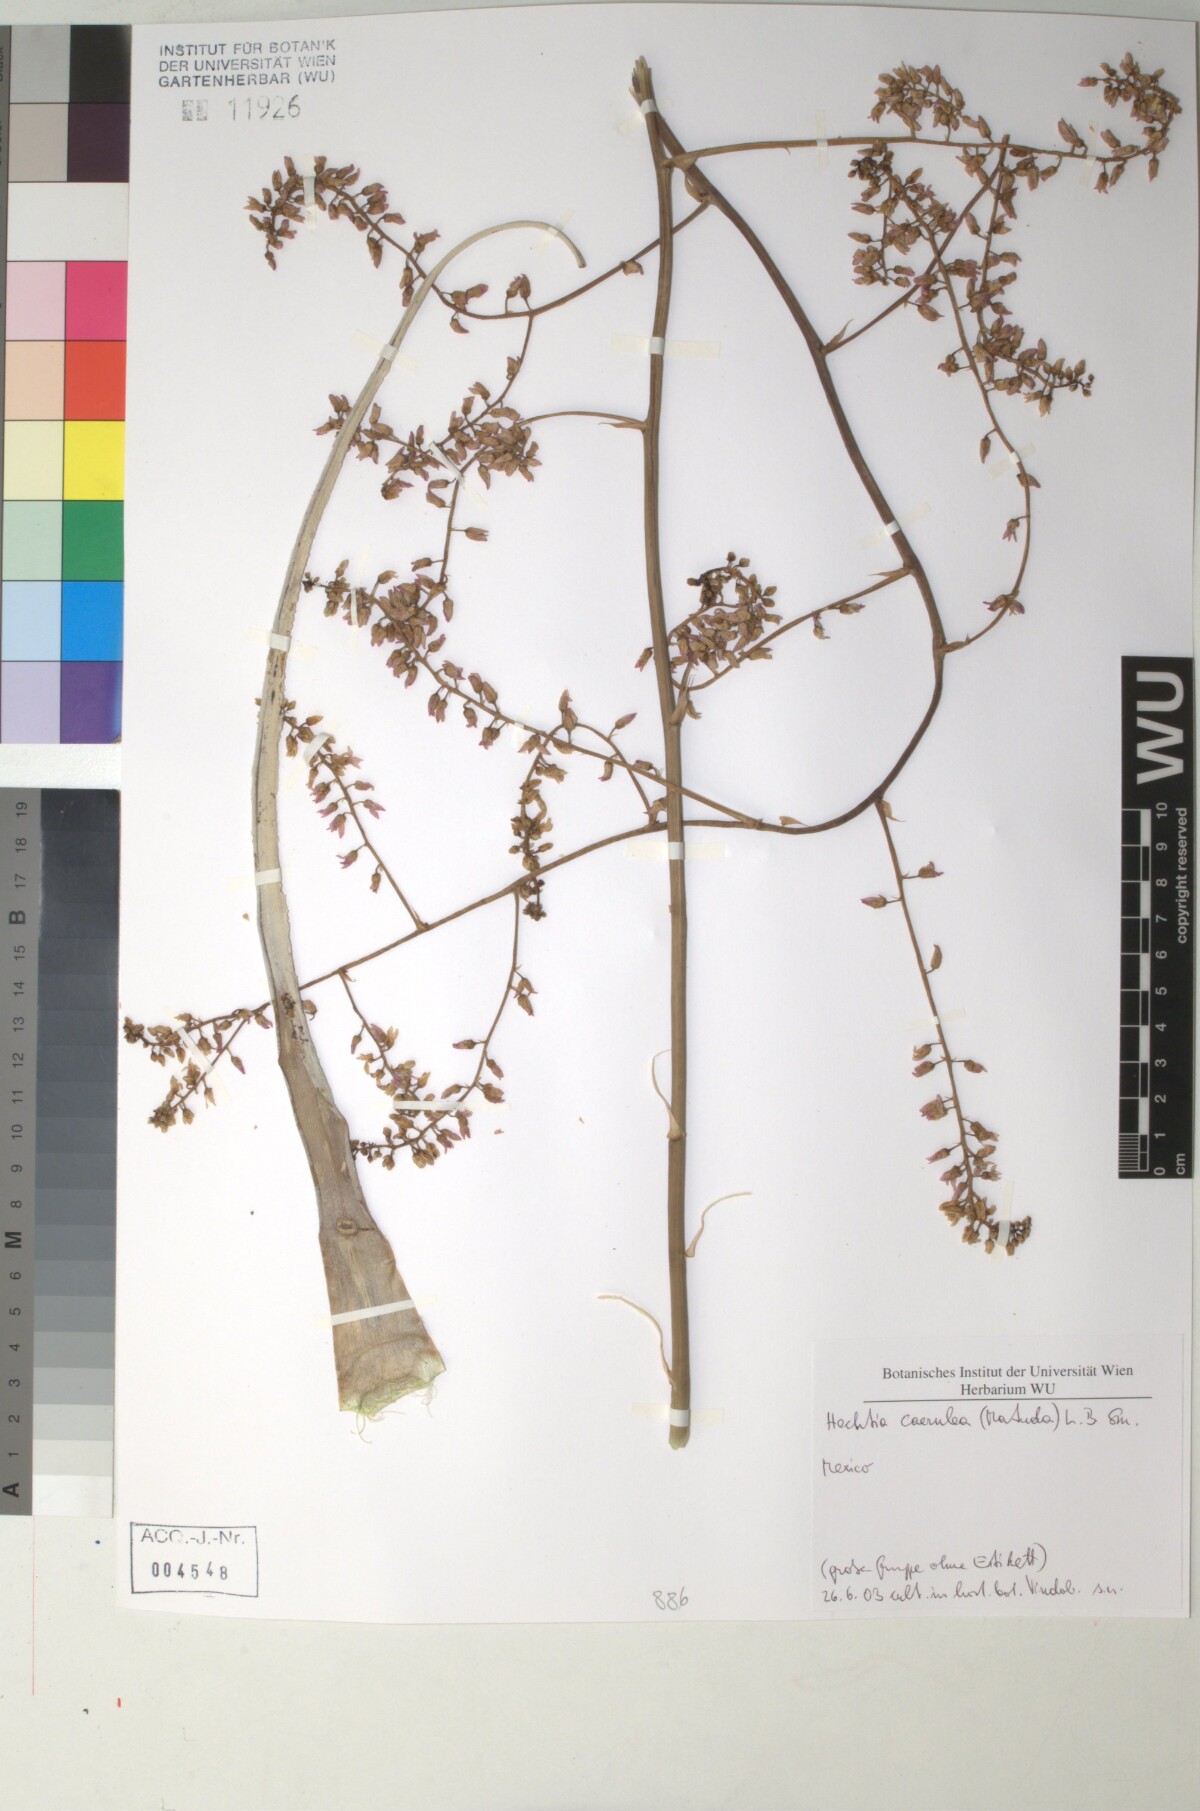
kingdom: Plantae
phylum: Tracheophyta
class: Liliopsida
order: Poales
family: Bromeliaceae
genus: Hechtia
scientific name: Hechtia
